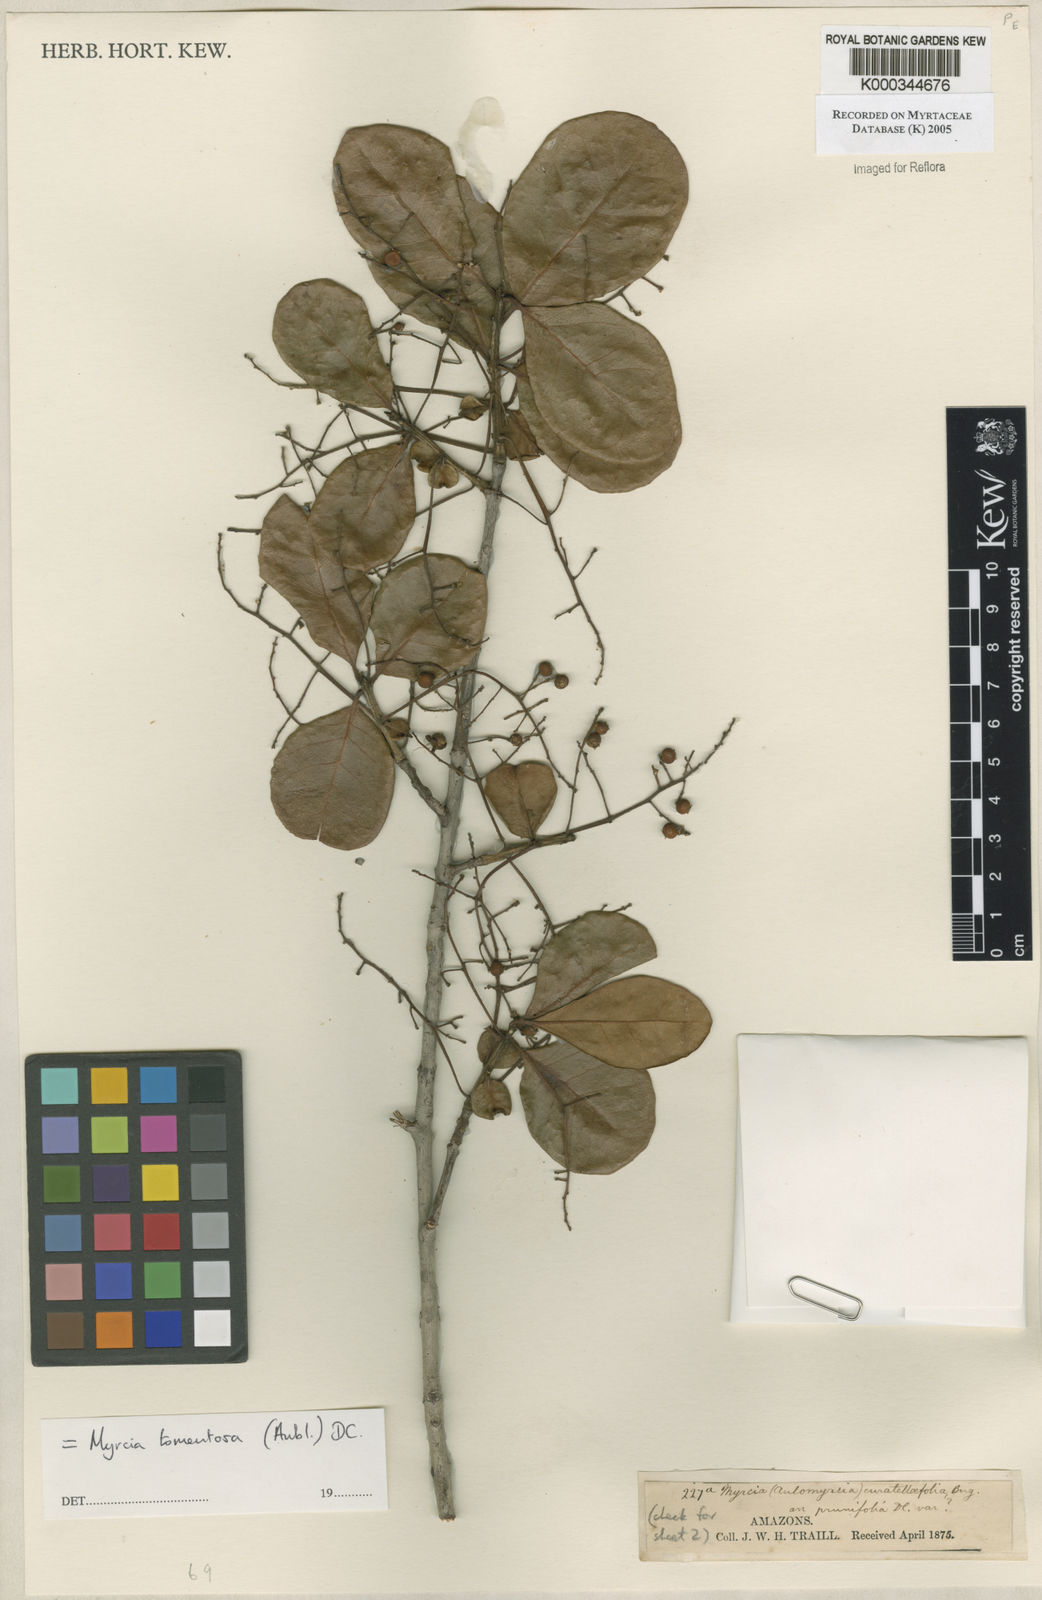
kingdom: Plantae
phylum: Tracheophyta
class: Magnoliopsida
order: Myrtales
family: Myrtaceae
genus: Myrcia
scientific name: Myrcia tomentosa
